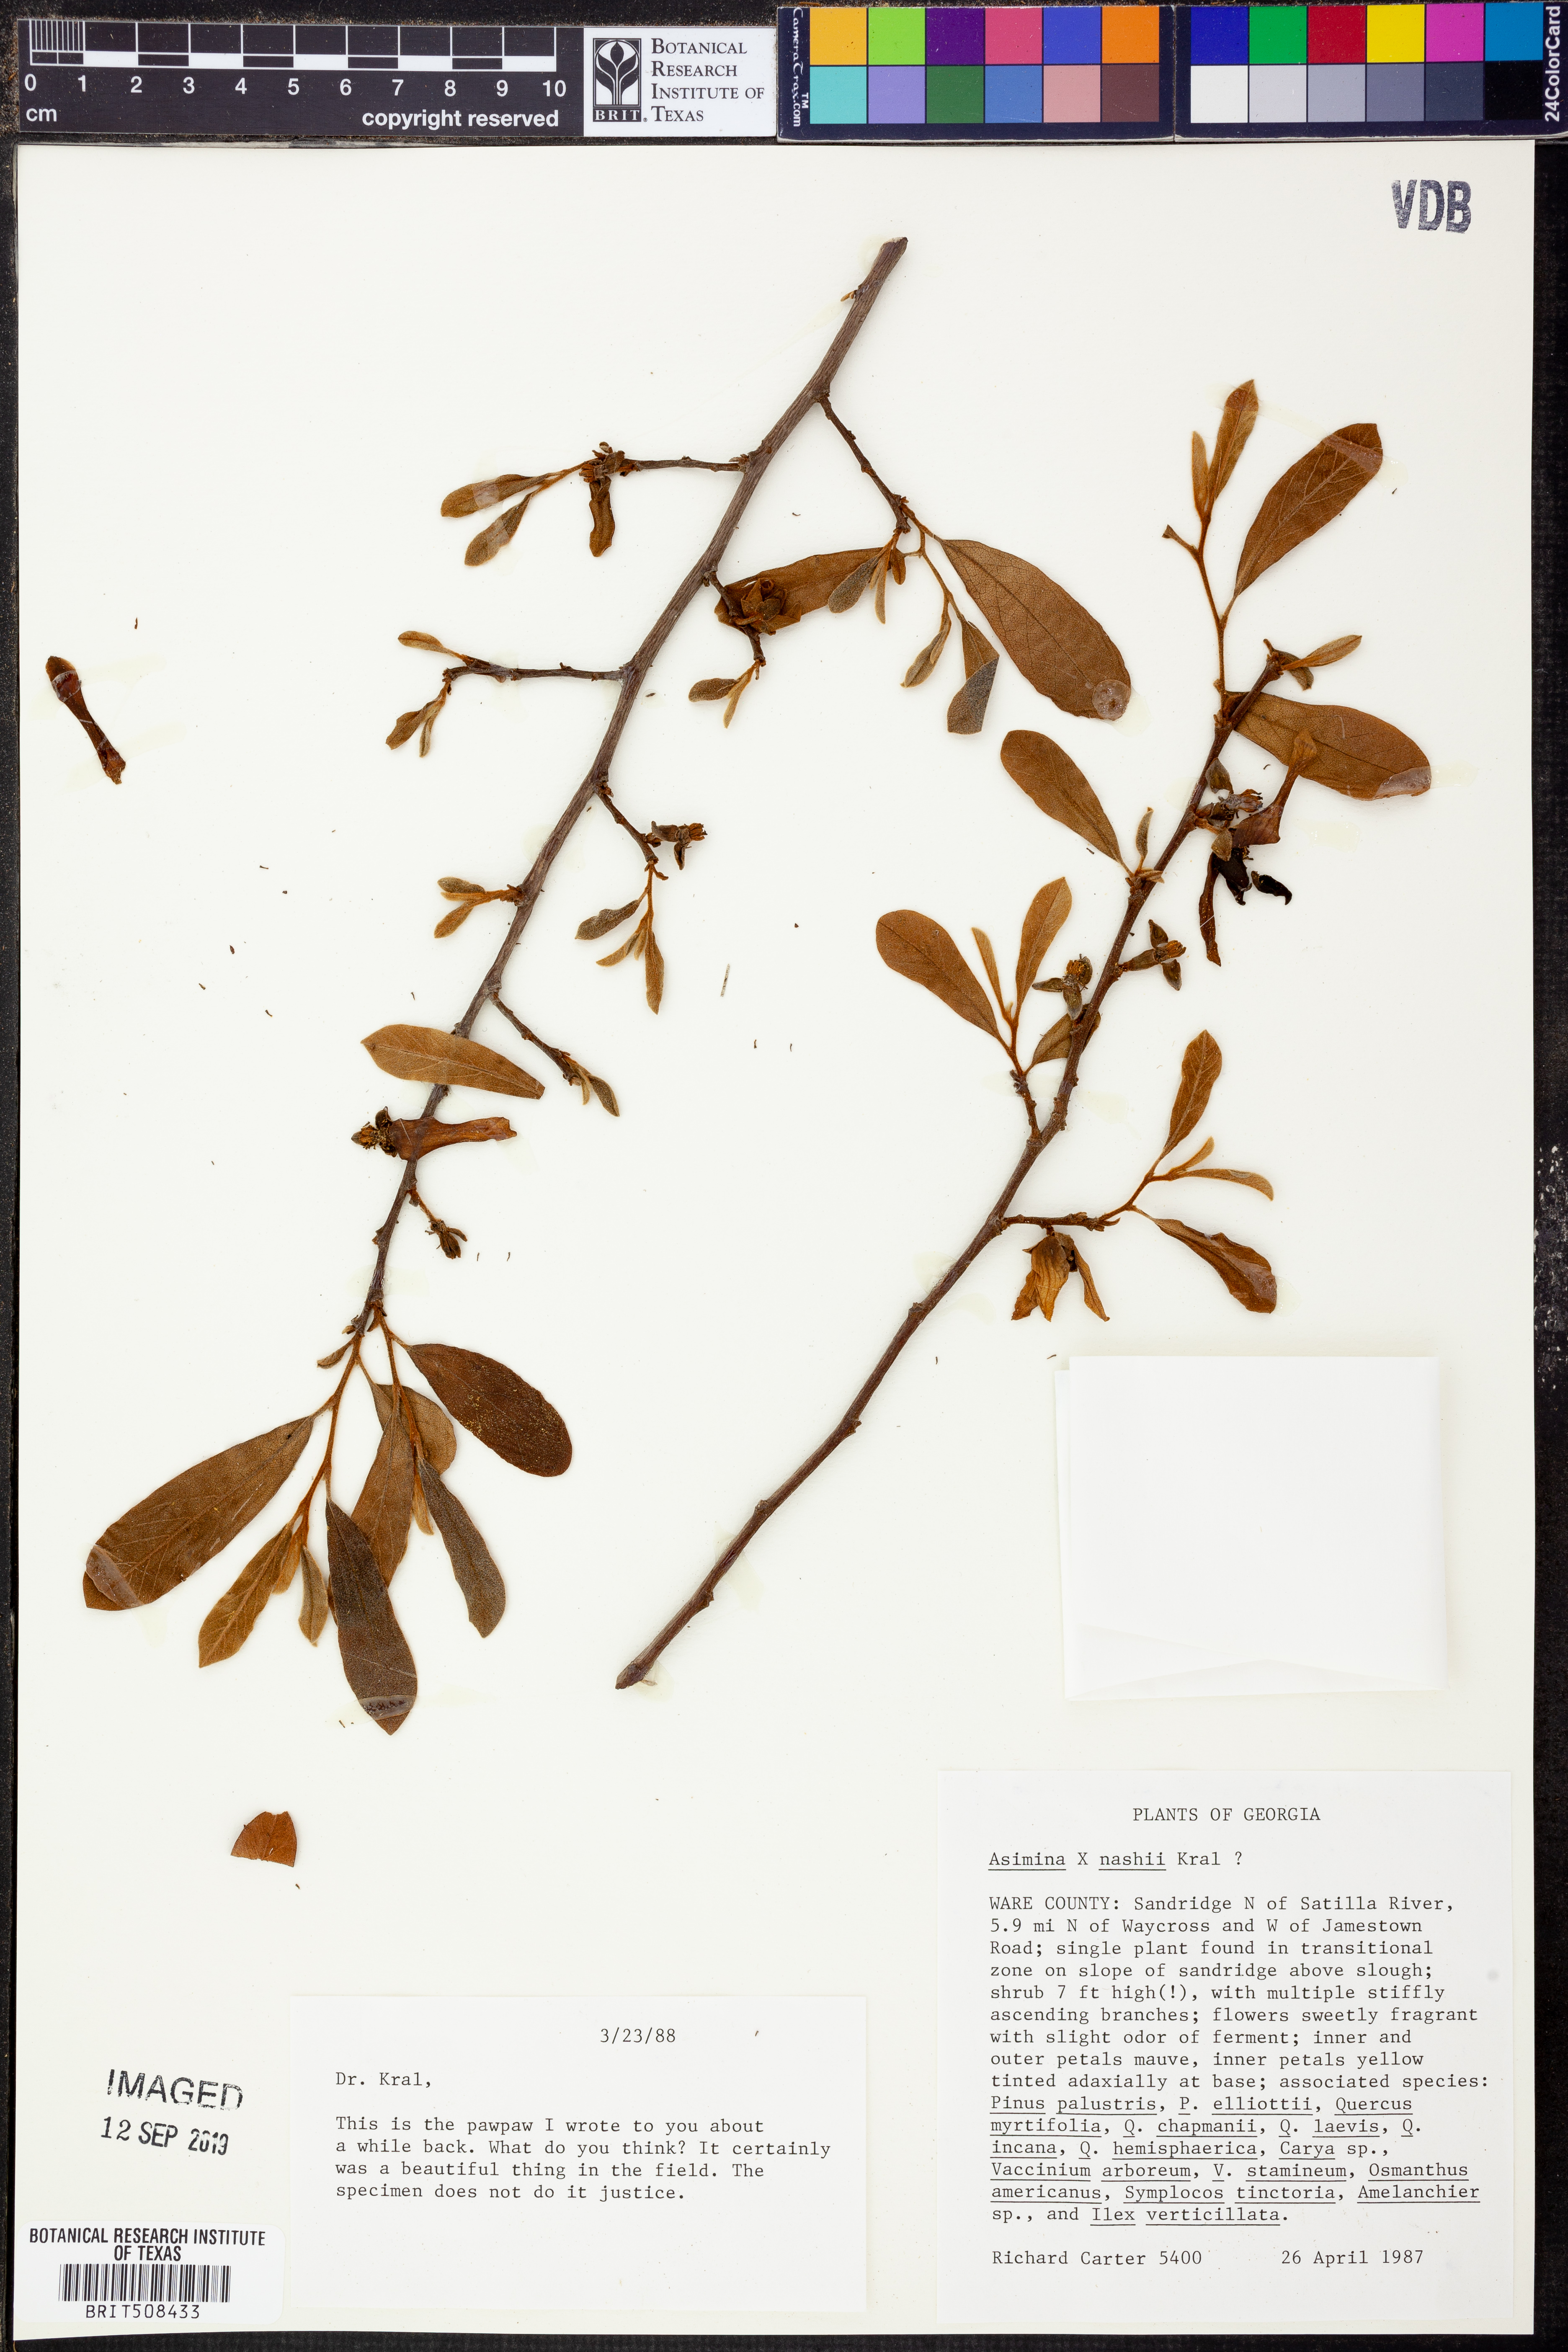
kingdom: Plantae
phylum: Tracheophyta
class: Magnoliopsida
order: Magnoliales
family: Annonaceae
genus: Asimina
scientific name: Asimina
